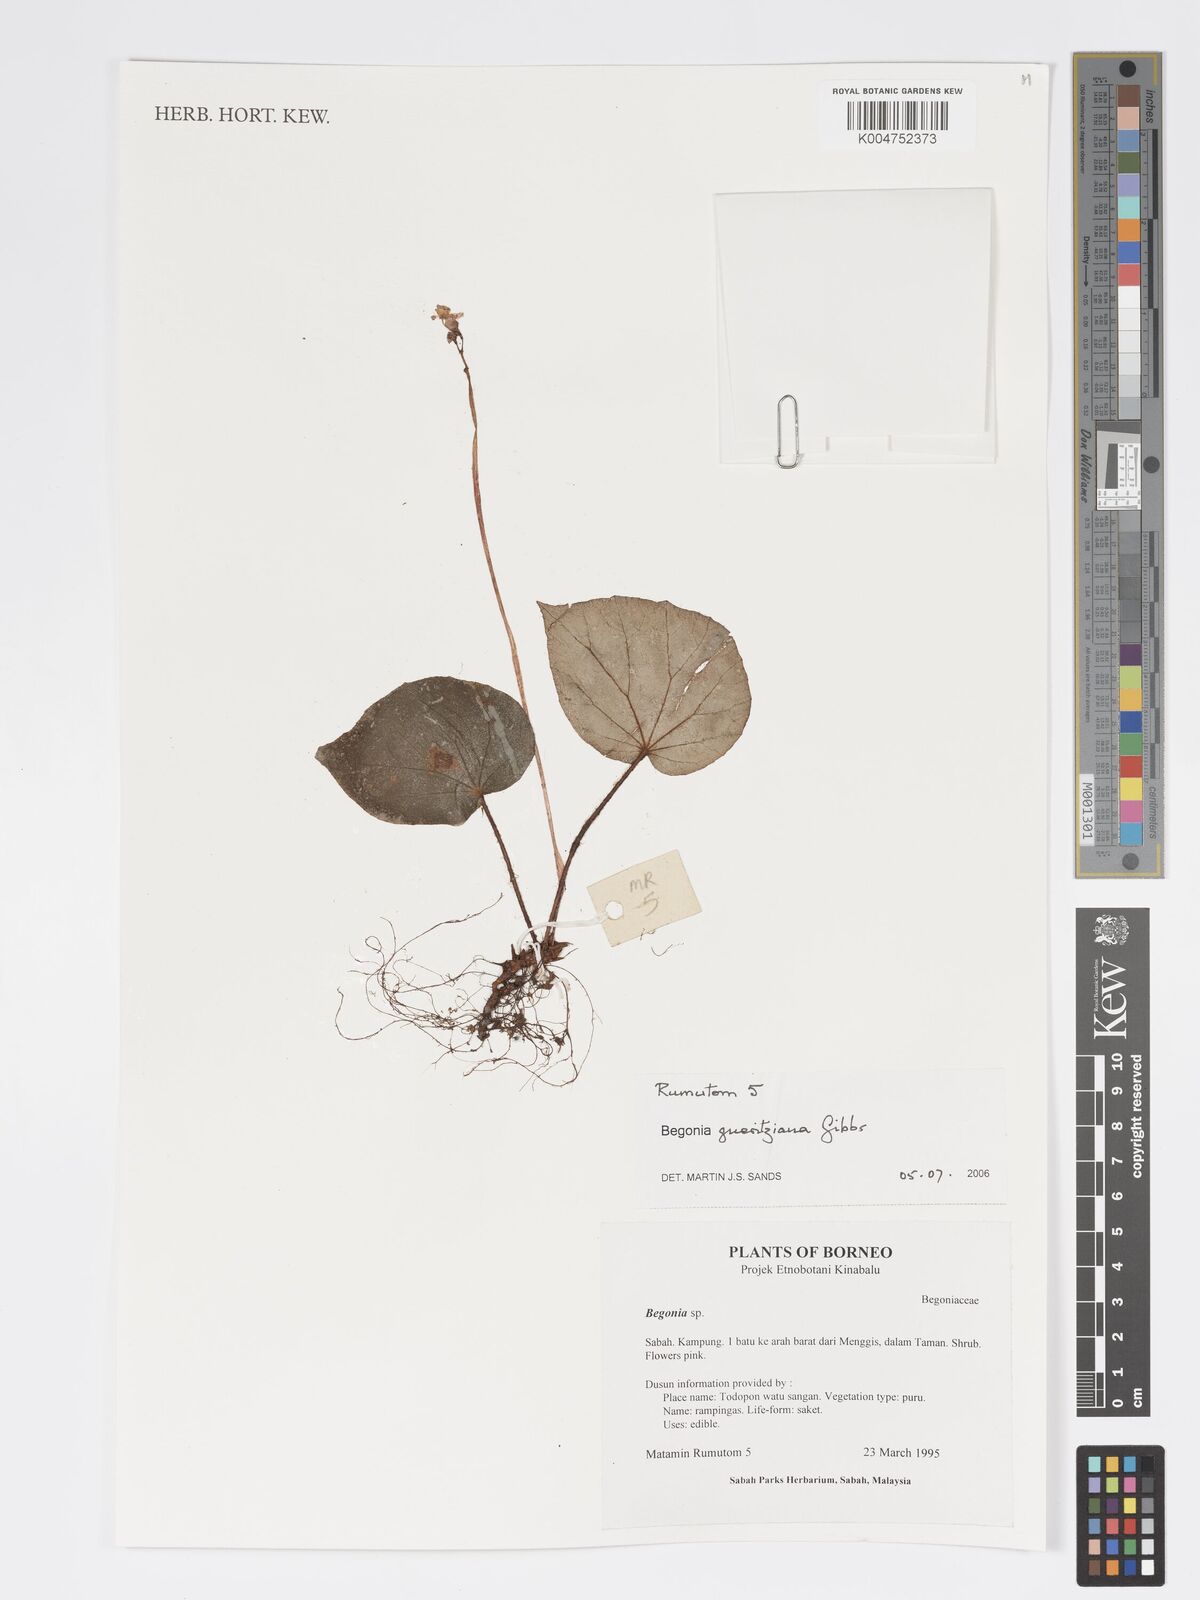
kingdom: Plantae
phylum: Tracheophyta
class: Magnoliopsida
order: Cucurbitales
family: Begoniaceae
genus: Begonia
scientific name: Begonia gueritziana
